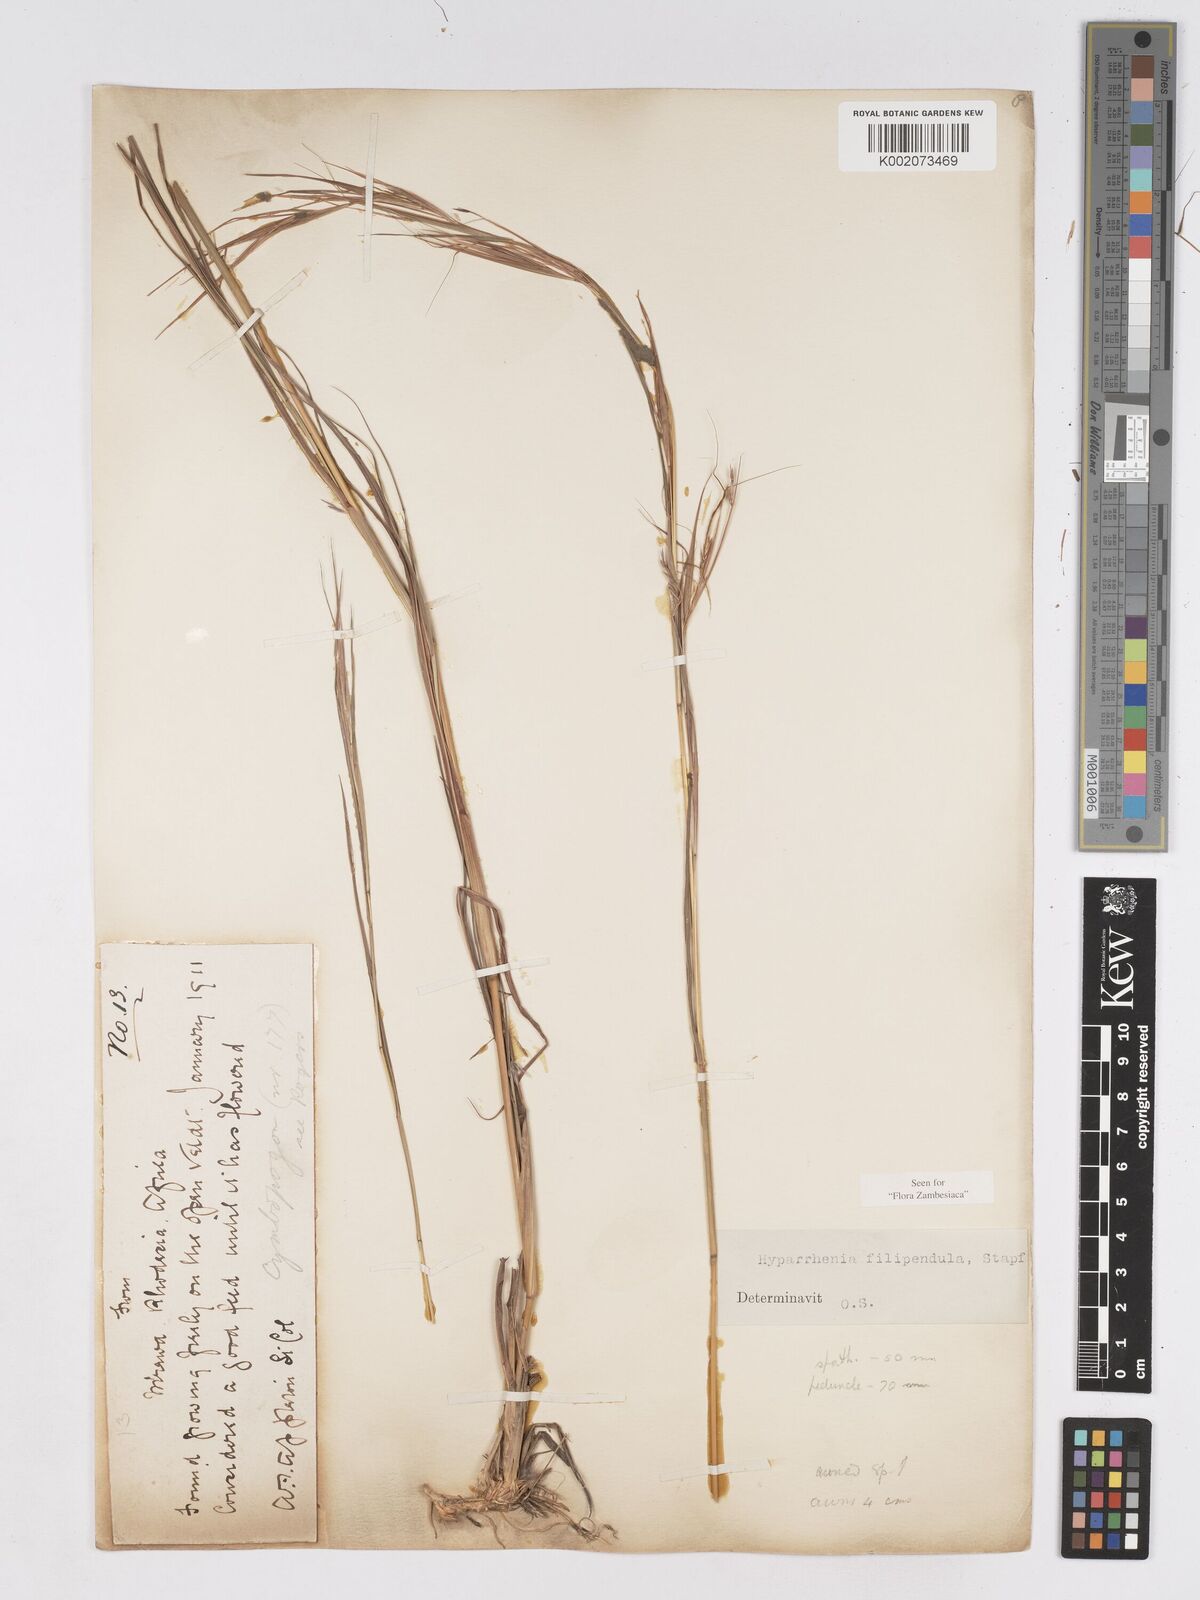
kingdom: Plantae
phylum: Tracheophyta
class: Liliopsida
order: Poales
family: Poaceae
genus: Hyparrhenia
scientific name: Hyparrhenia filipendula
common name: Tambookie grass
